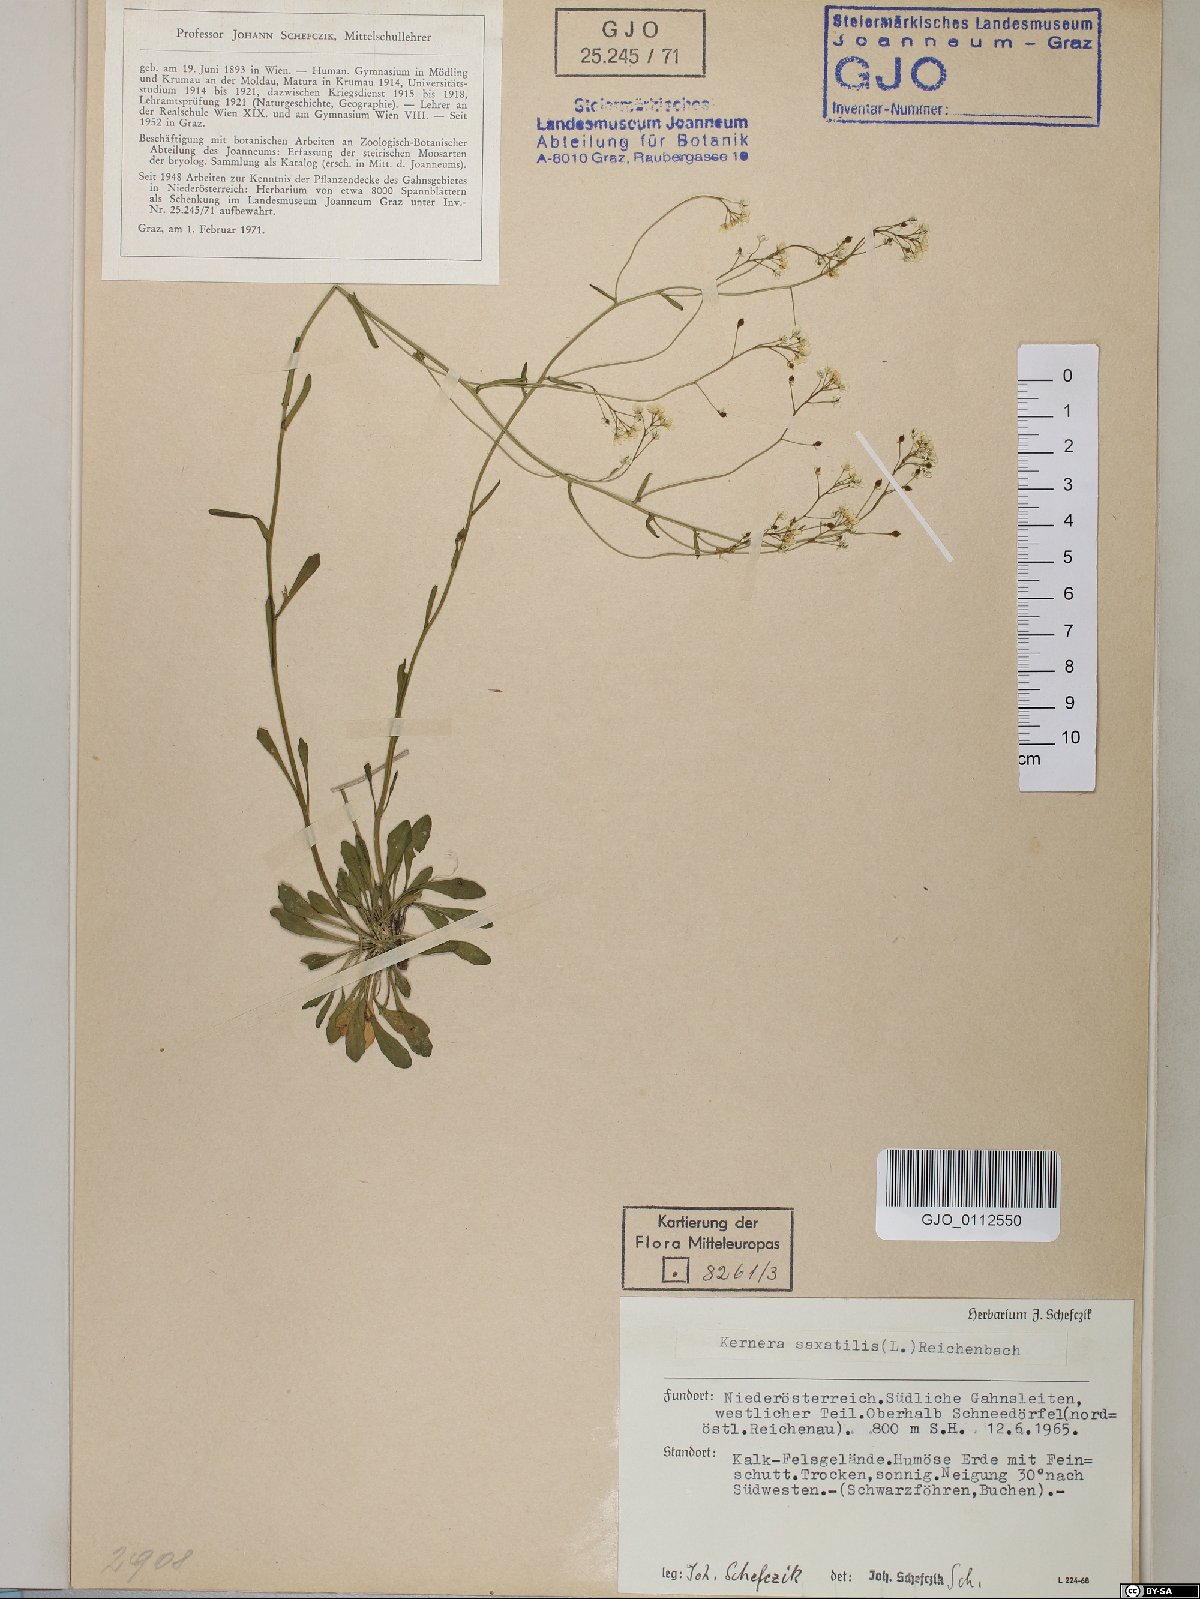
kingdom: Plantae
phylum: Tracheophyta
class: Magnoliopsida
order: Brassicales
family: Brassicaceae
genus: Kernera
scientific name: Kernera saxatilis
